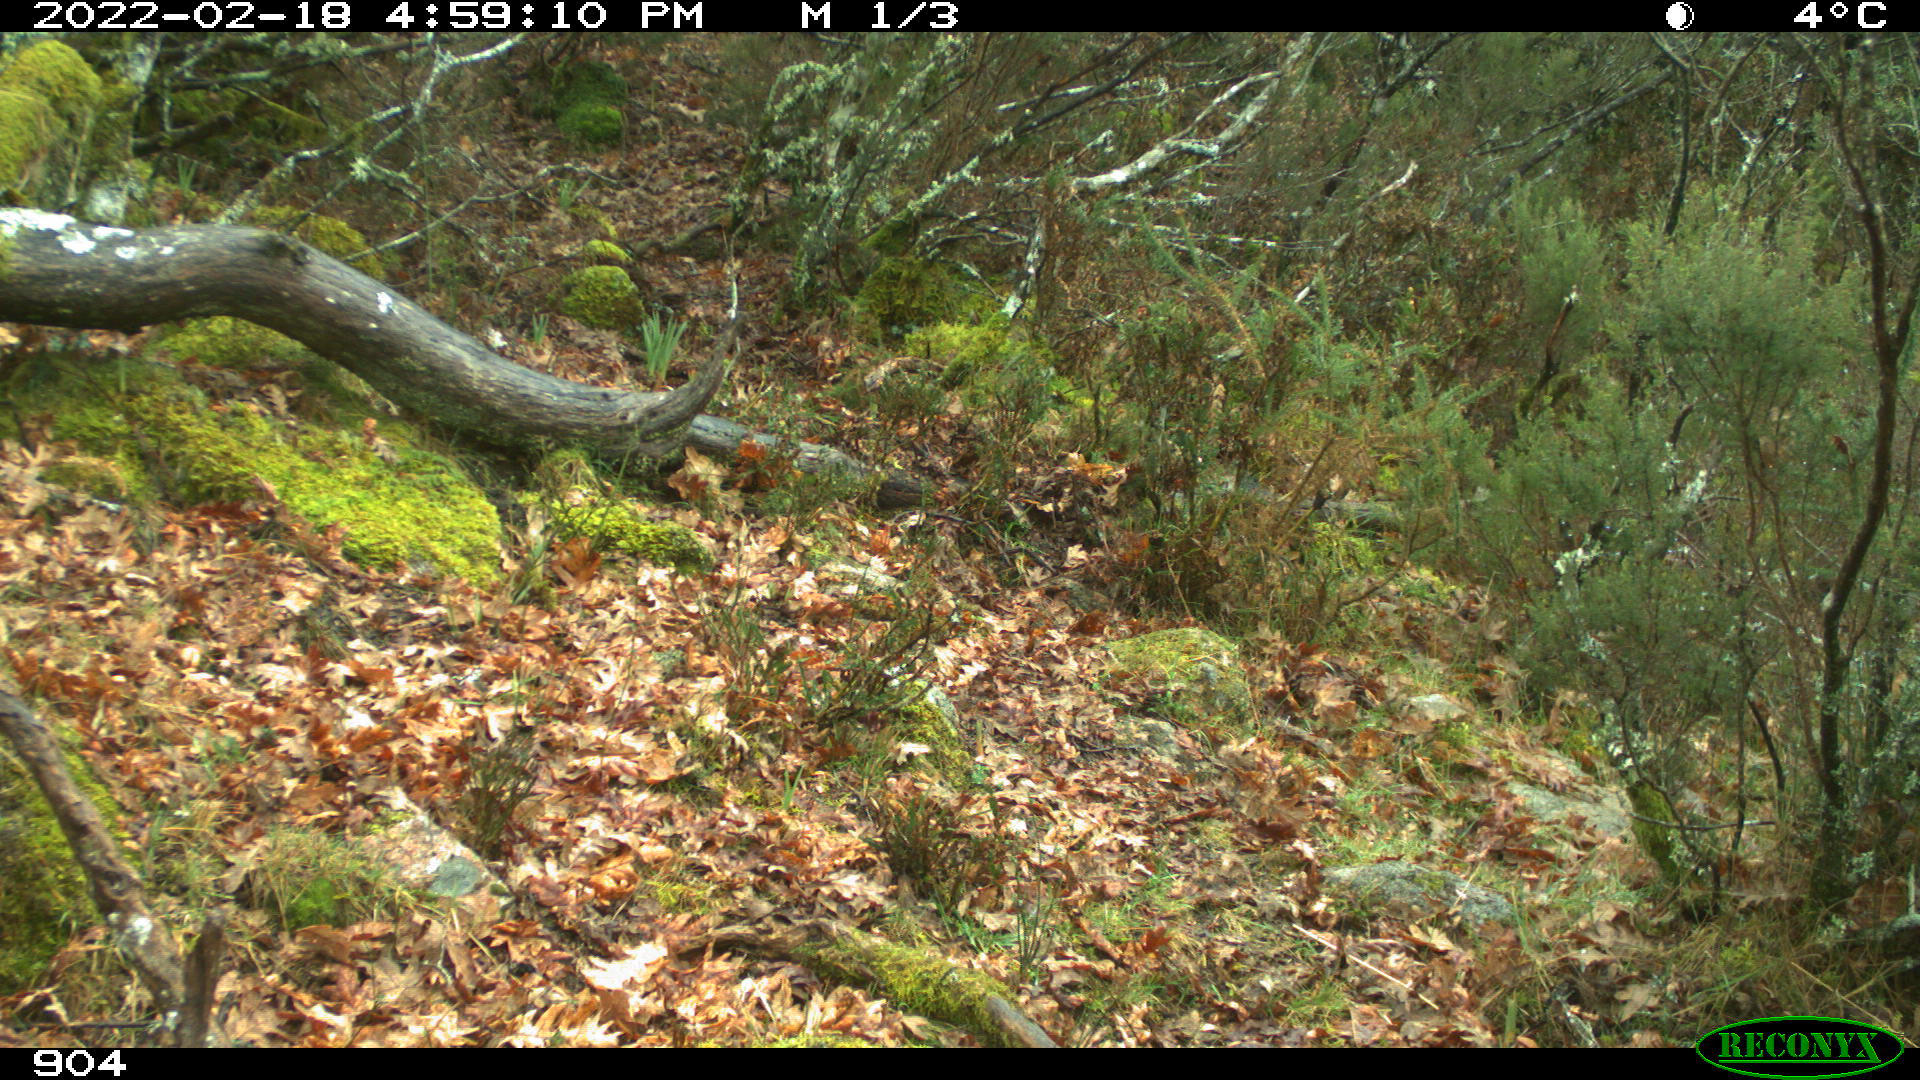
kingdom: Animalia
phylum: Chordata
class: Mammalia
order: Artiodactyla
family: Bovidae
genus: Bos
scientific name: Bos taurus
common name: Domesticated cattle
